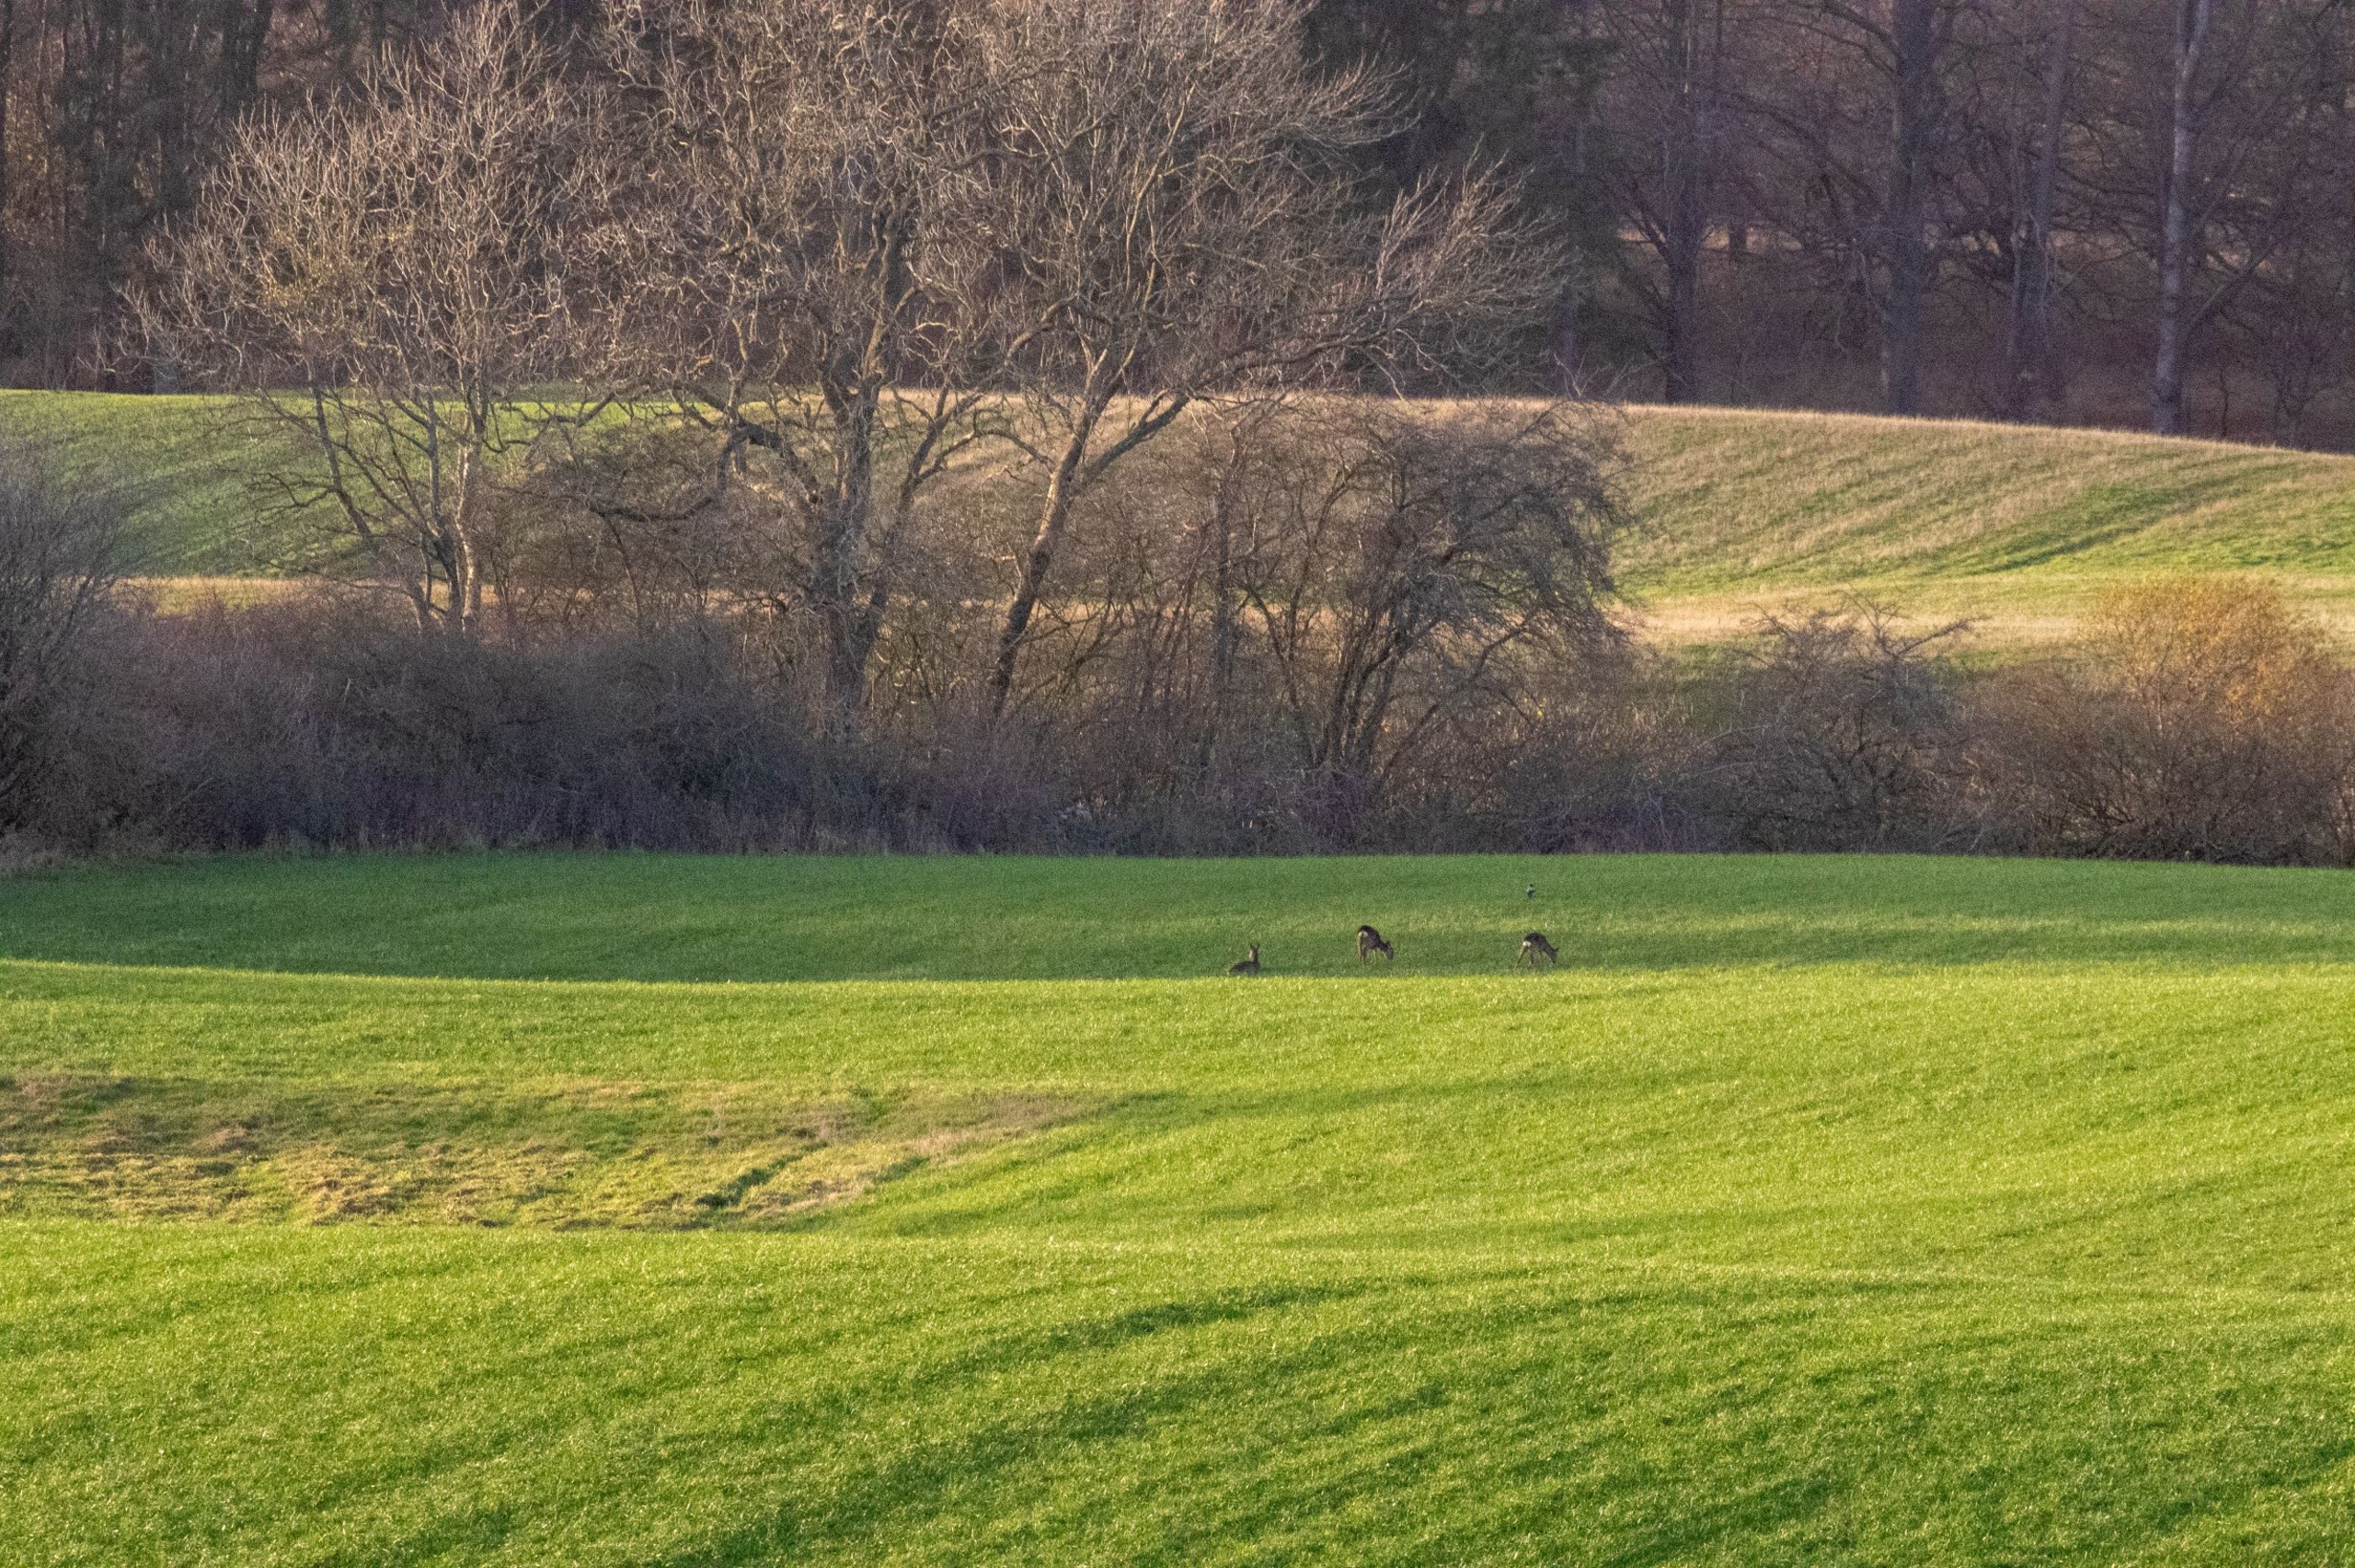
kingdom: Animalia
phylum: Chordata
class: Mammalia
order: Artiodactyla
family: Cervidae
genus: Capreolus
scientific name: Capreolus capreolus
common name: Rådyr
